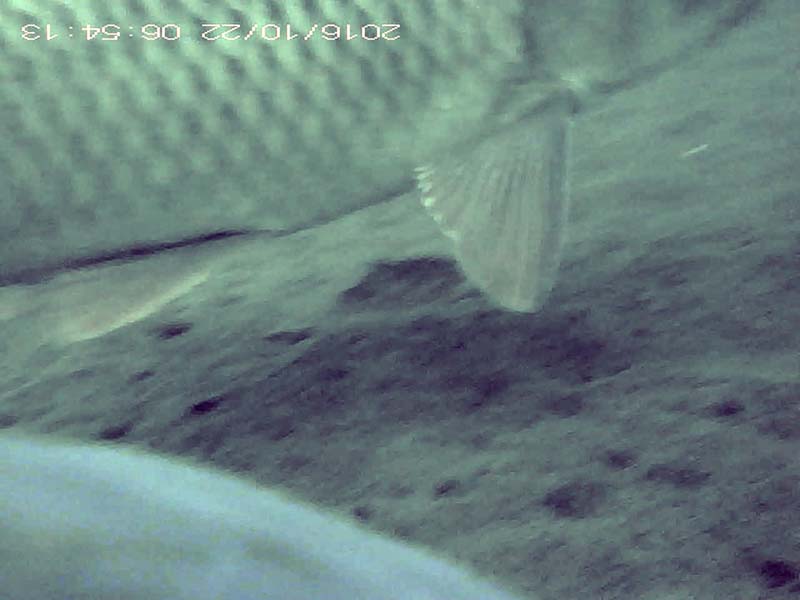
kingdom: Animalia
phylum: Chordata
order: Cypriniformes
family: Cyprinidae
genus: Cyprinus
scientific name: Cyprinus carpio
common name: コイ
